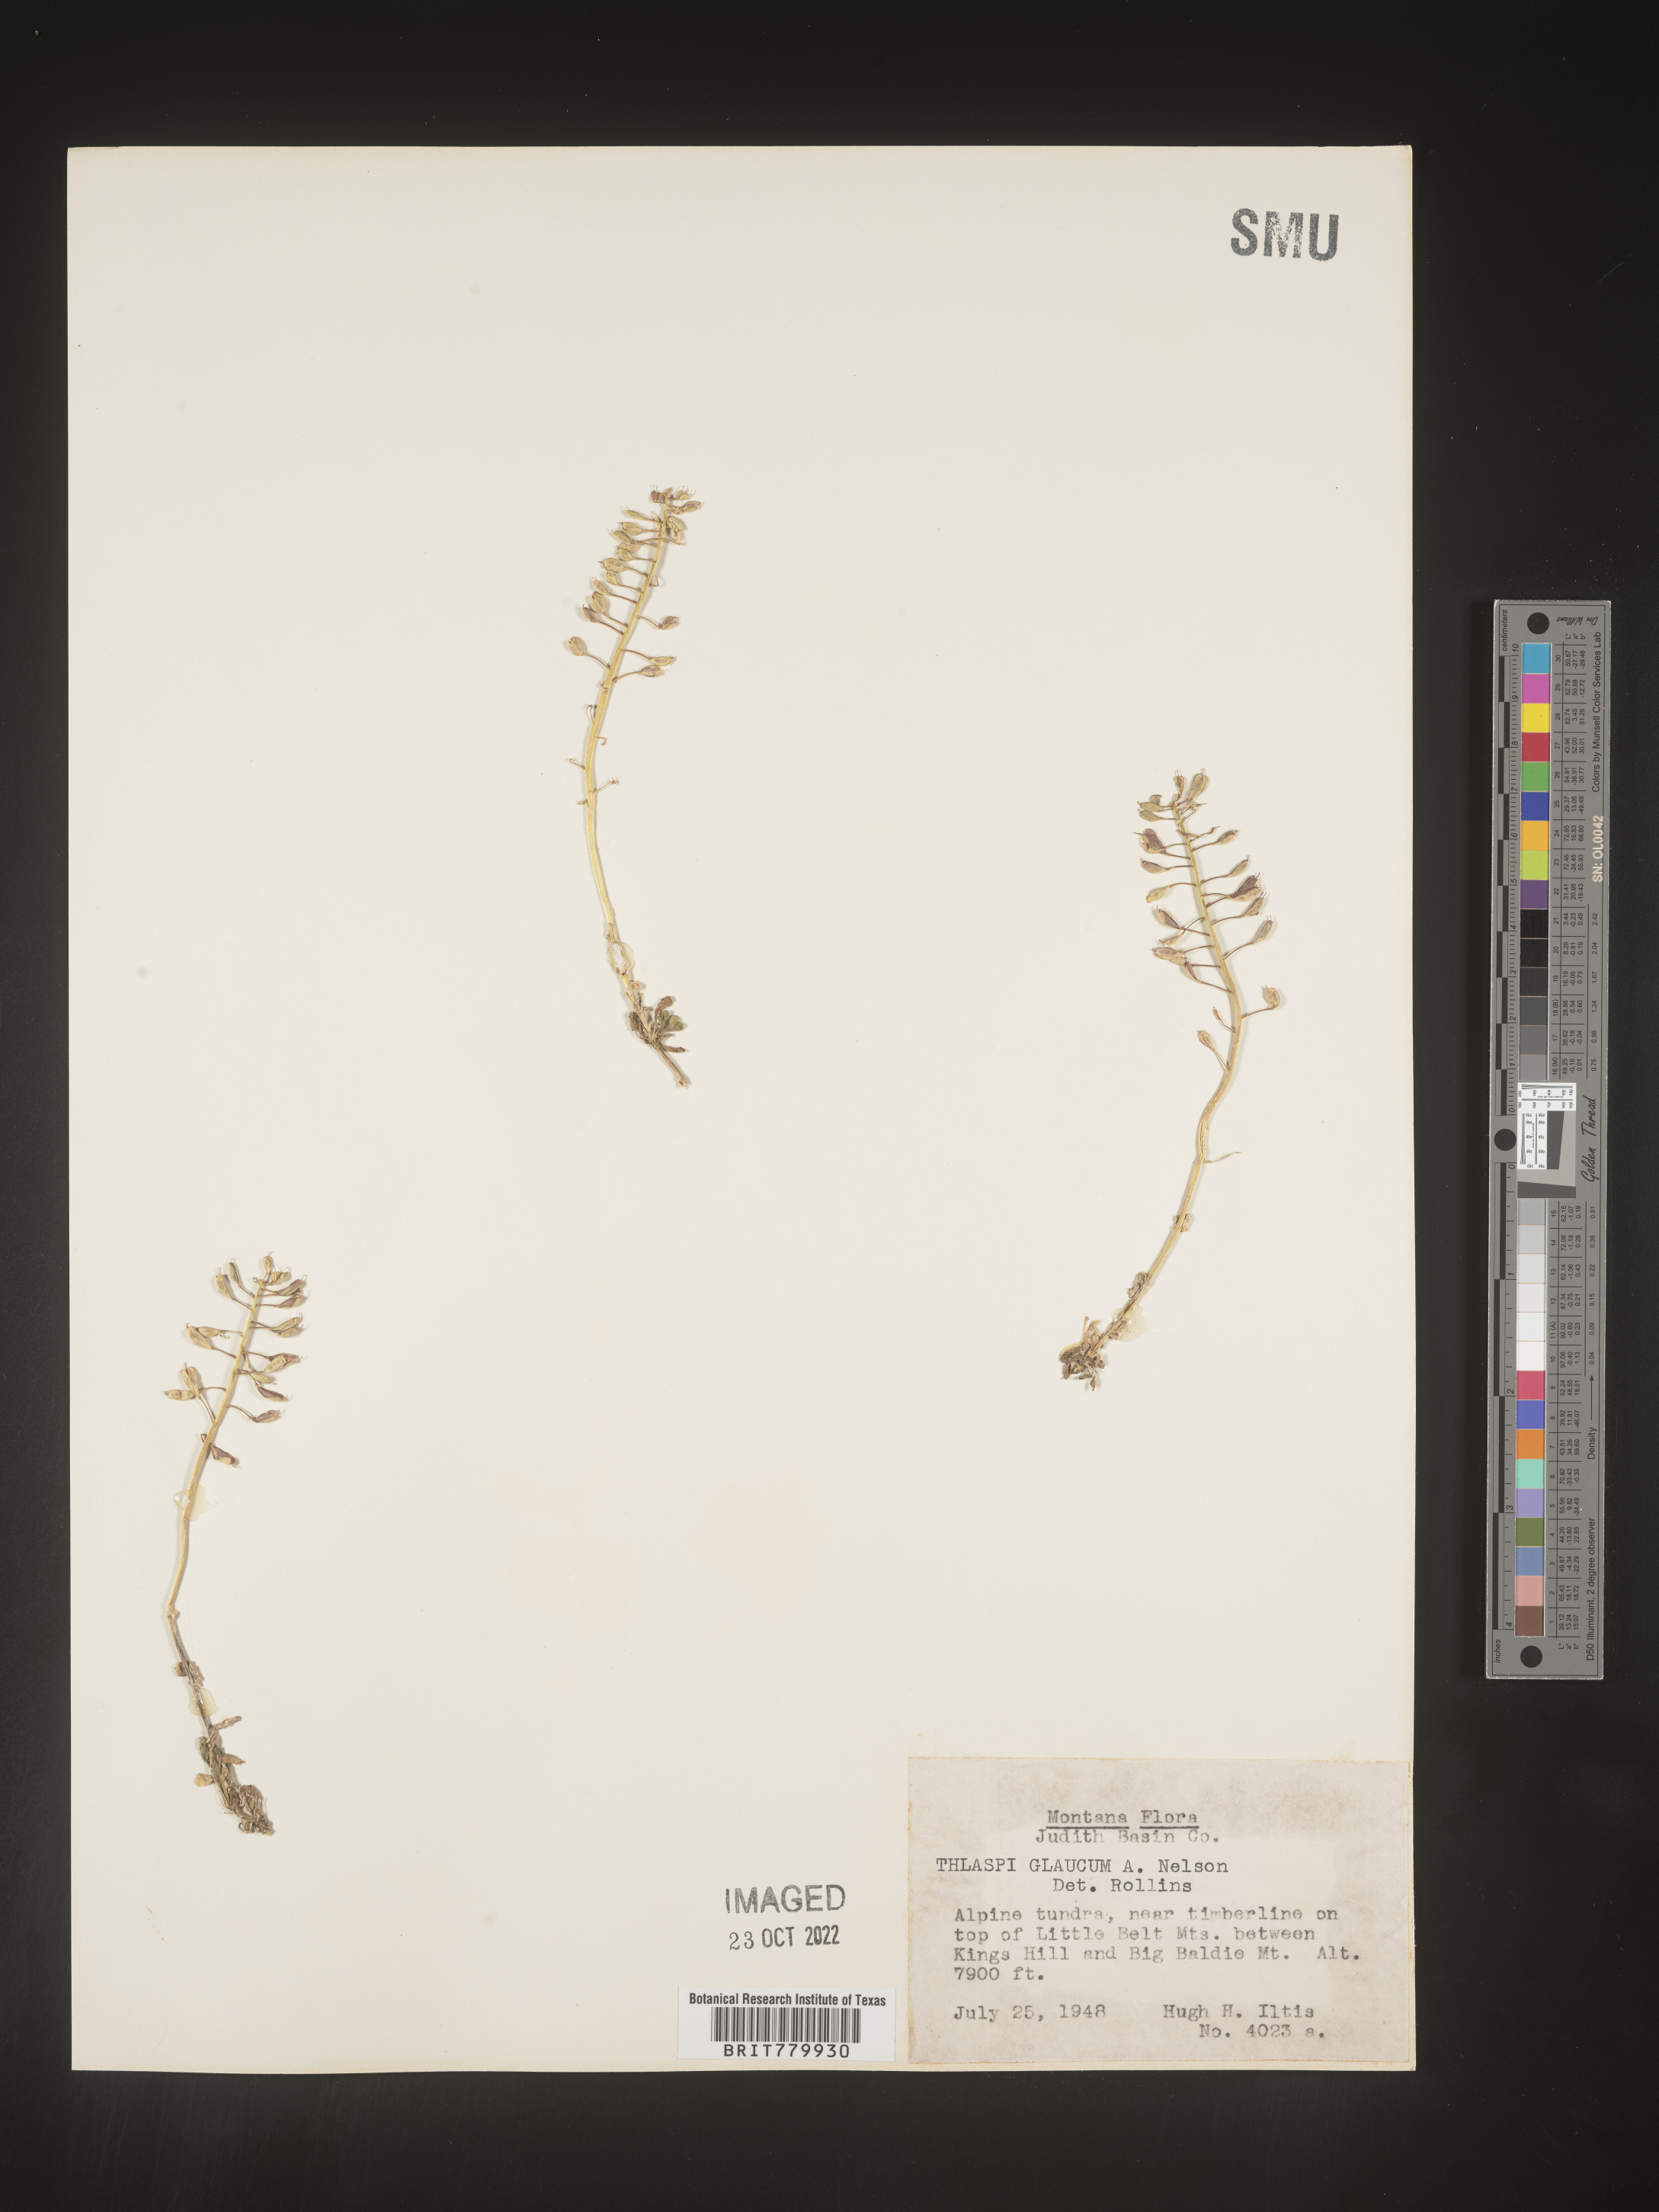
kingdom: Plantae
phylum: Tracheophyta
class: Magnoliopsida
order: Brassicales
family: Brassicaceae
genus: Thlaspi
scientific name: Thlaspi
